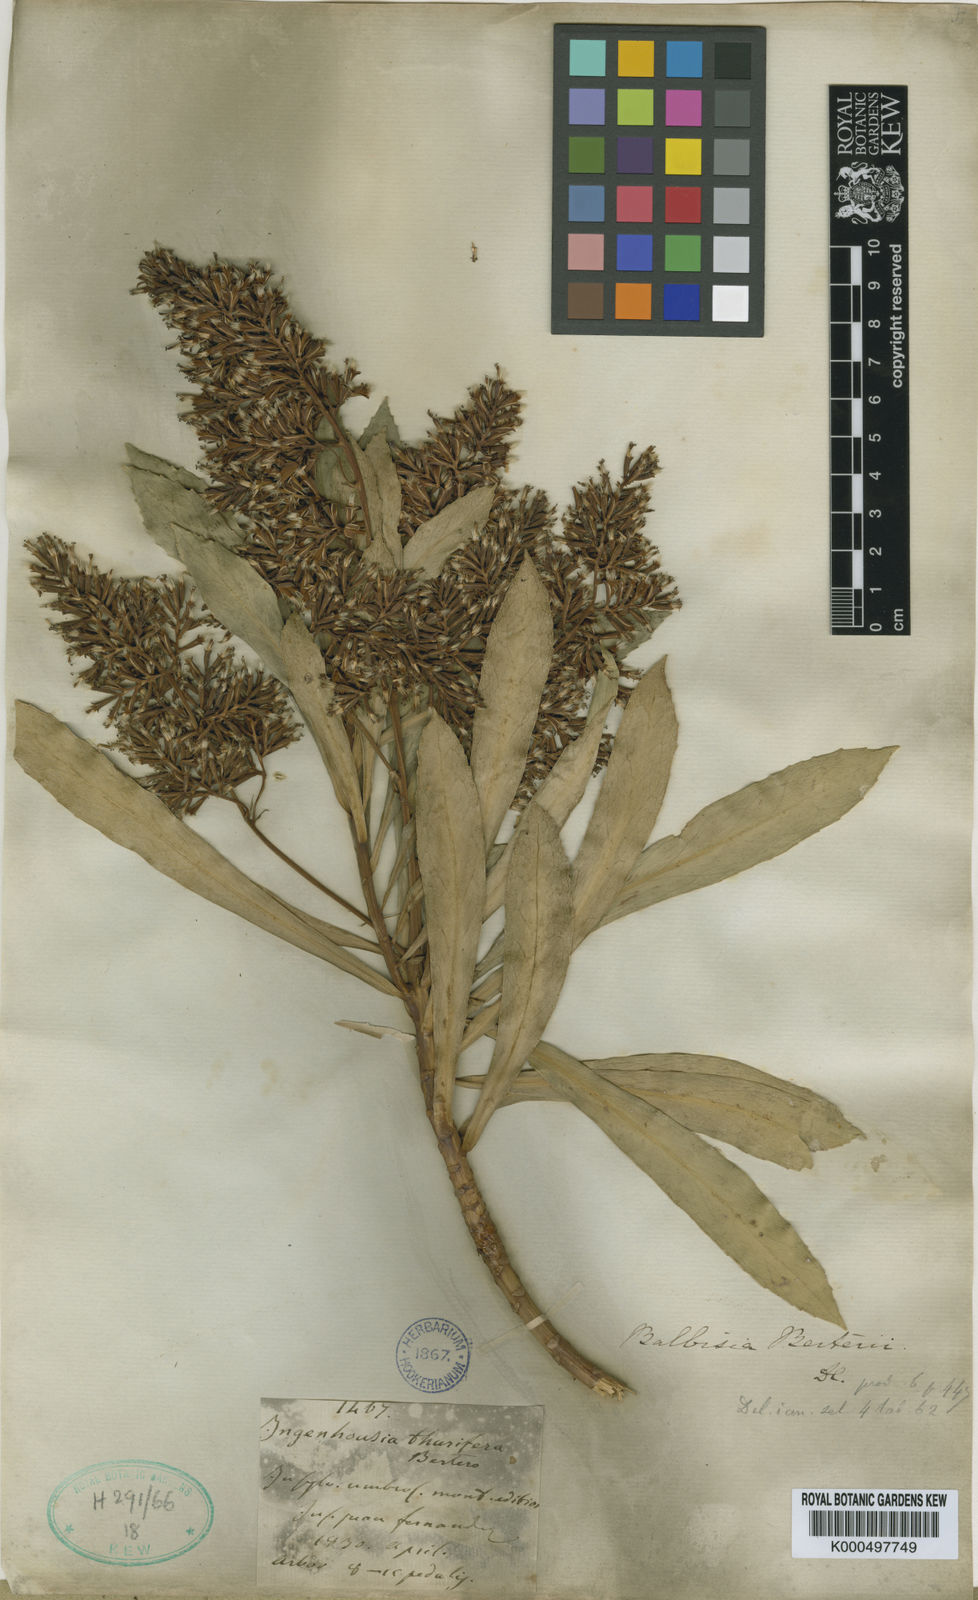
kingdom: Plantae
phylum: Tracheophyta
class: Magnoliopsida
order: Asterales
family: Asteraceae
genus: Robinsonia
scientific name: Robinsonia
